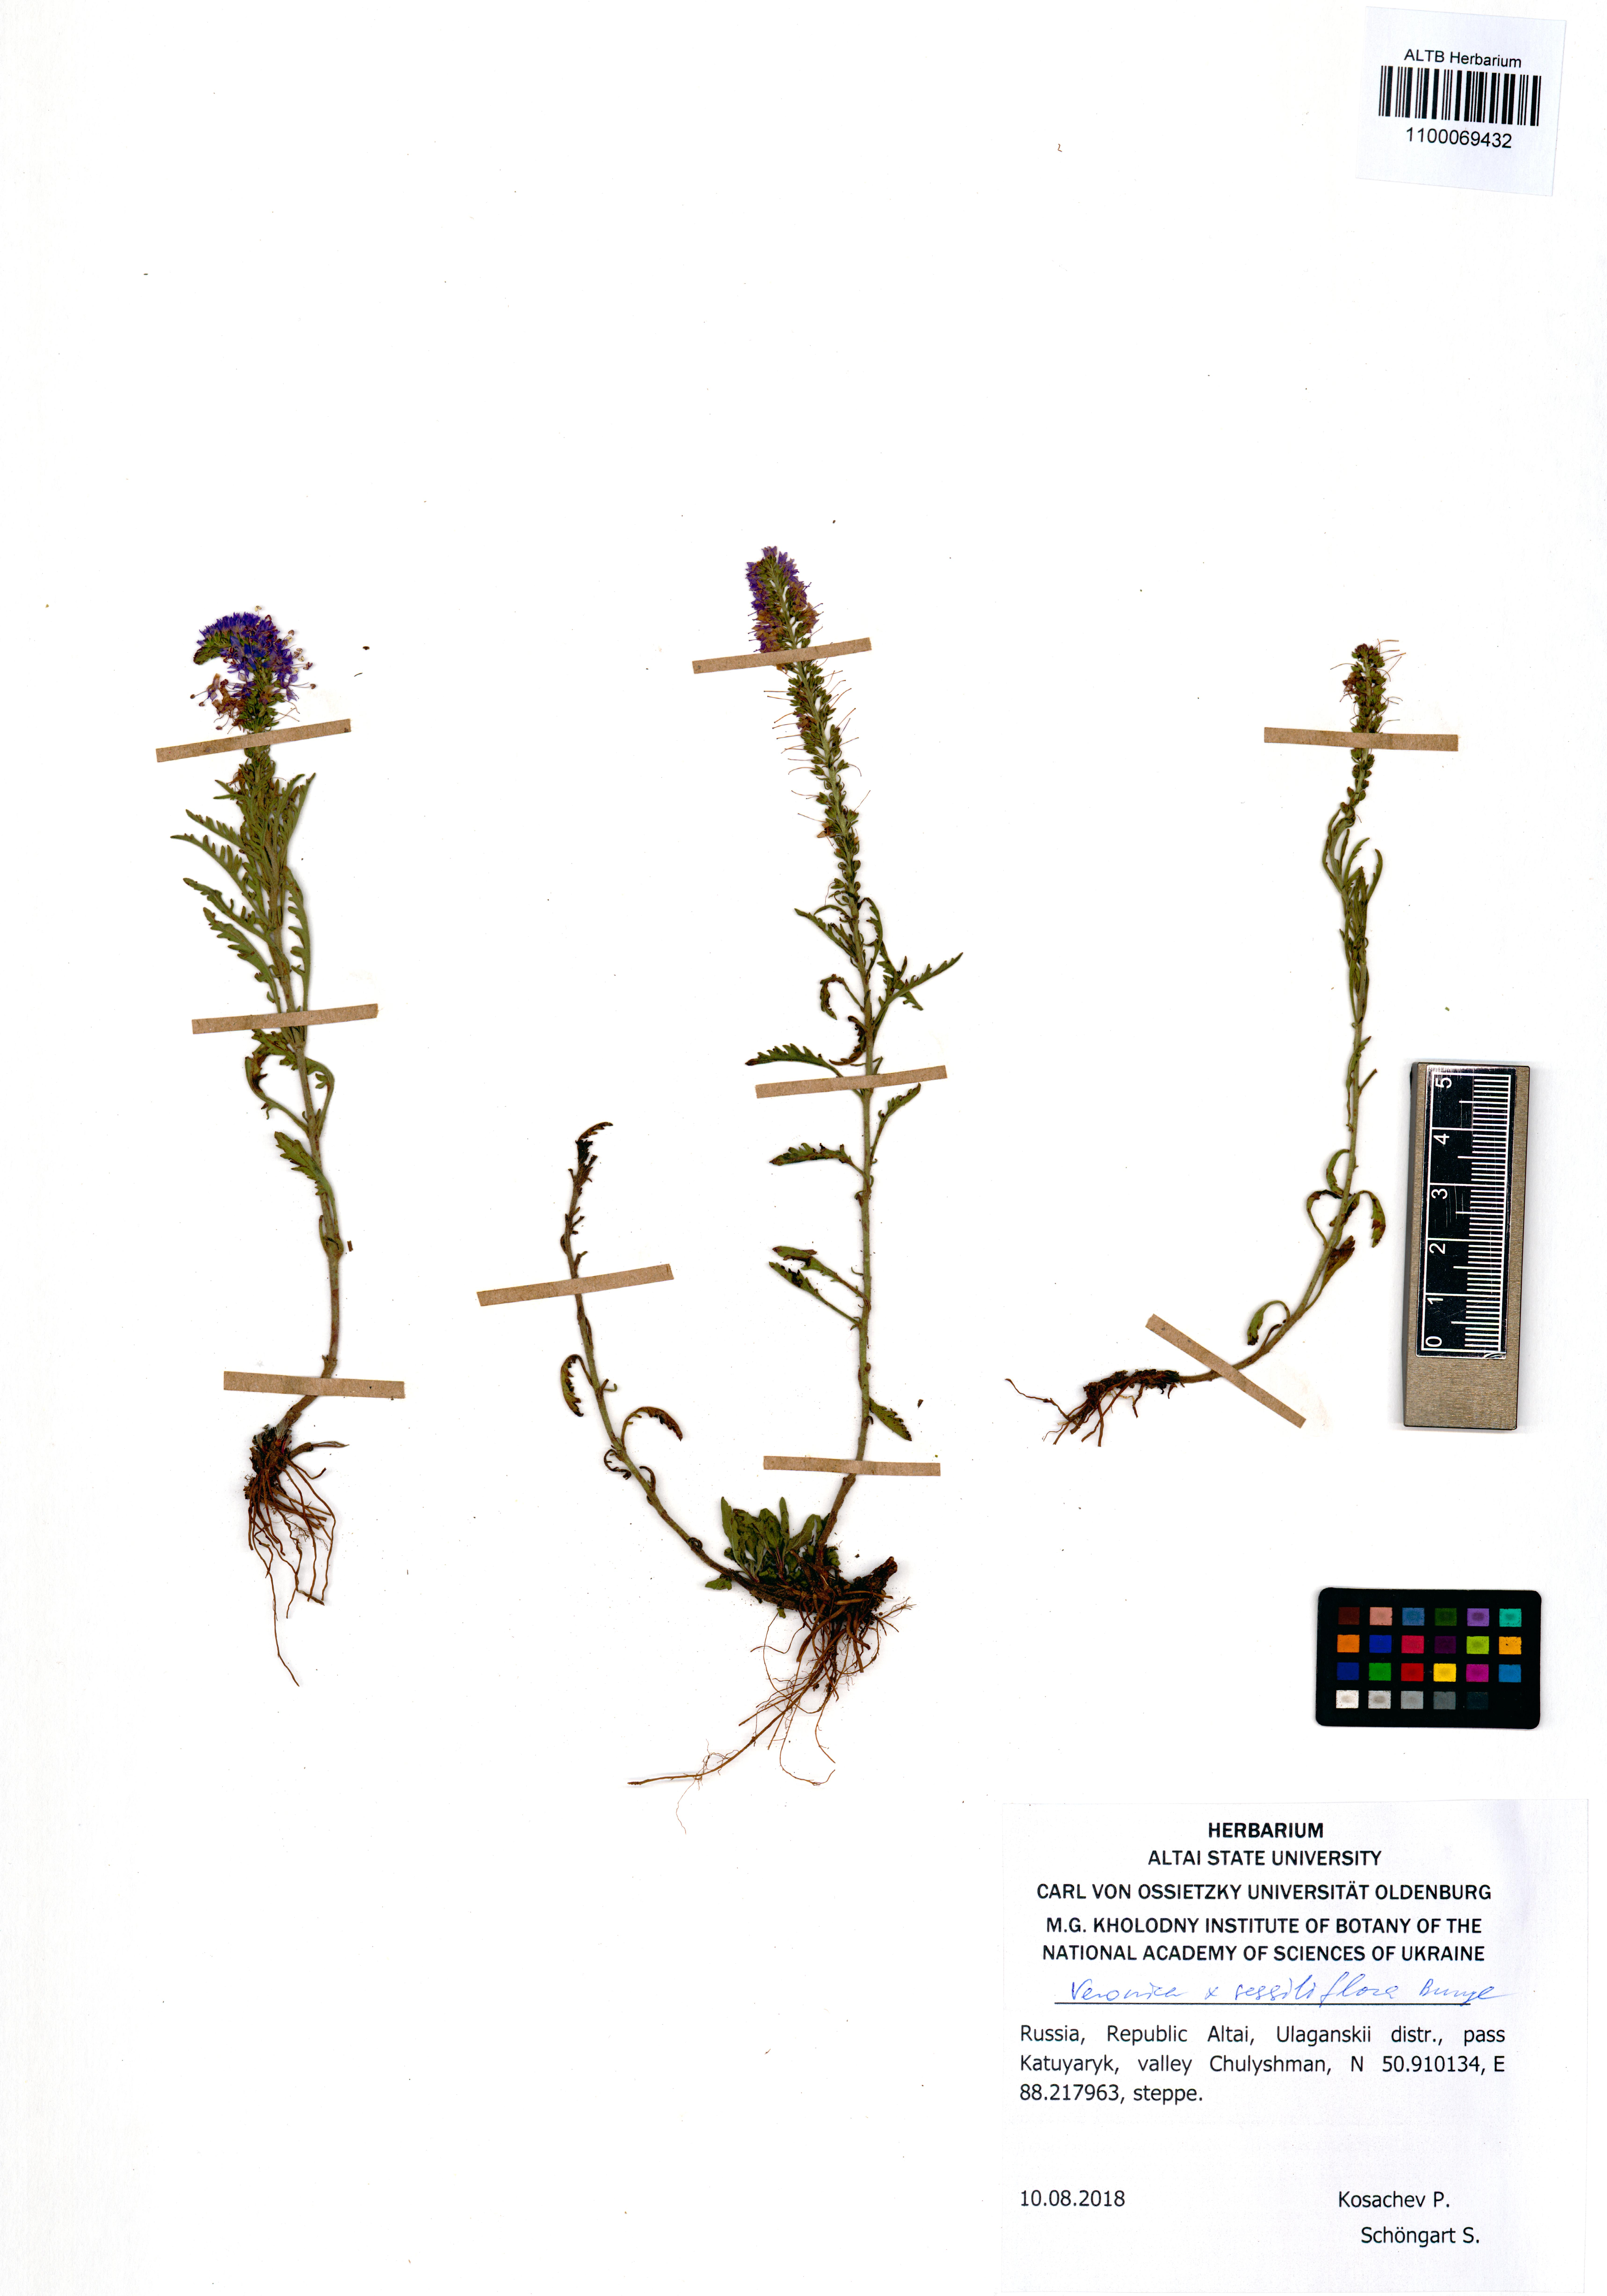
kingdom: Plantae
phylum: Tracheophyta
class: Magnoliopsida
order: Lamiales
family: Plantaginaceae
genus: Veronica
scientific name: Veronica sessiliflora
